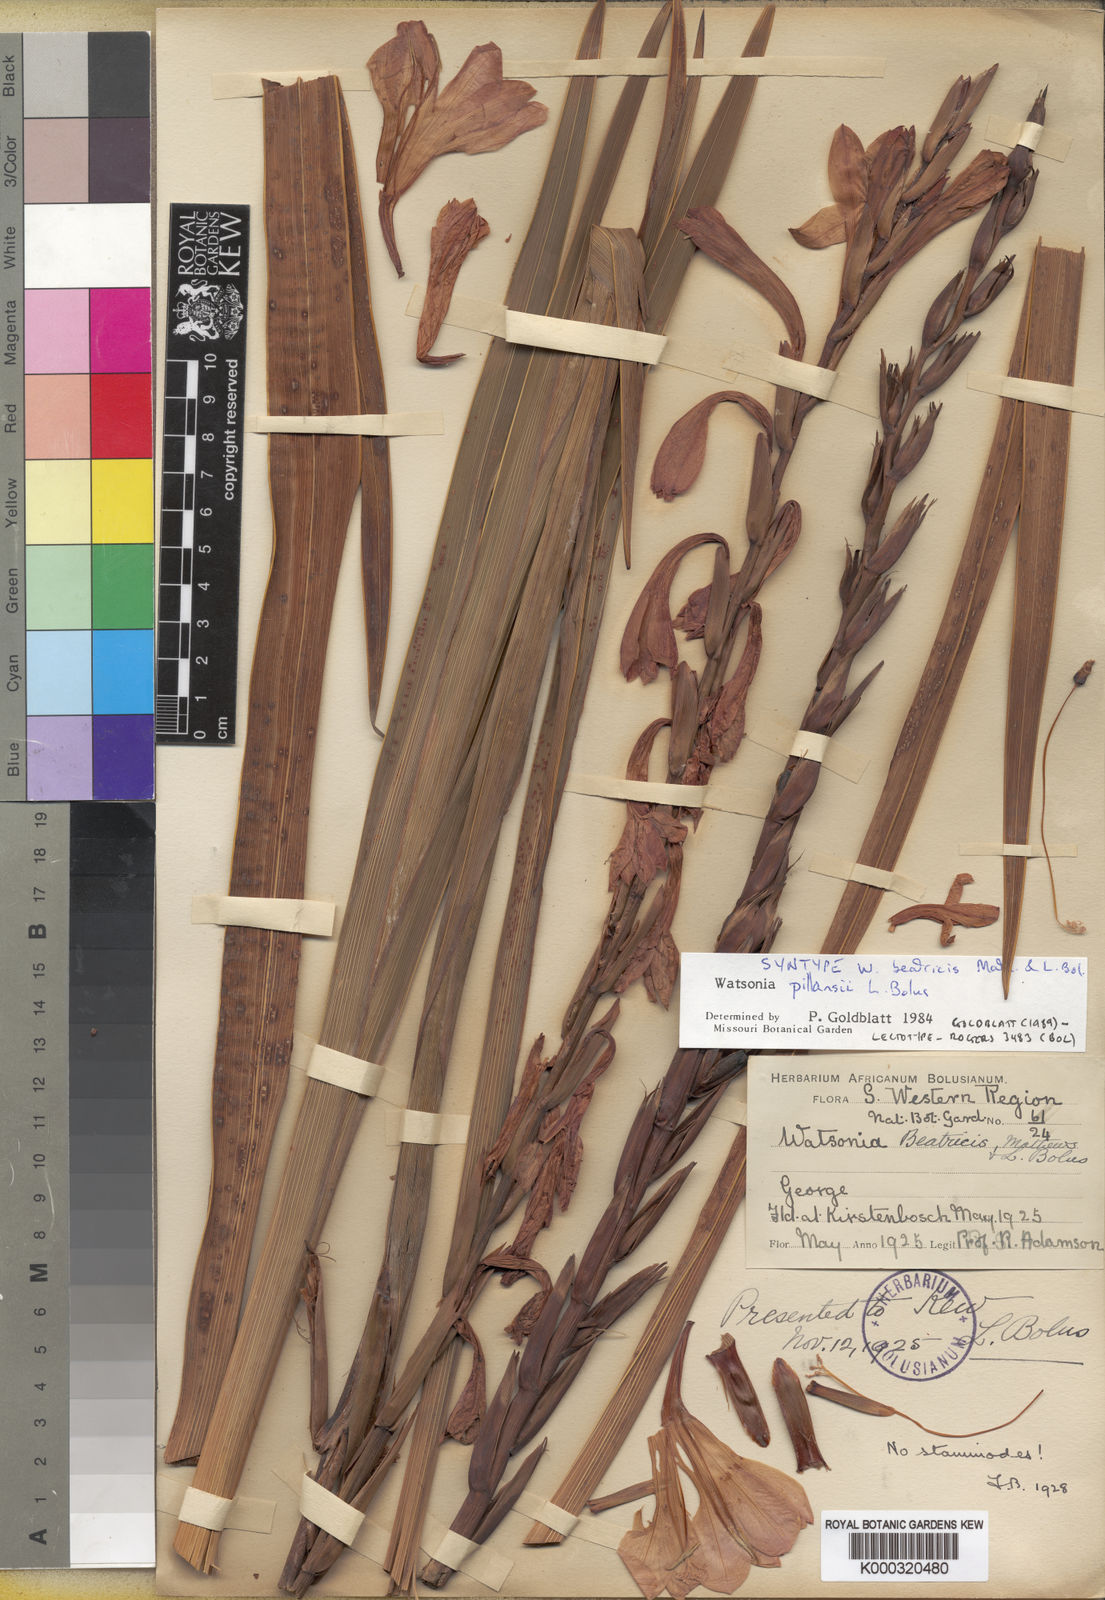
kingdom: Plantae
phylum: Tracheophyta
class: Liliopsida
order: Asparagales
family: Iridaceae
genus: Watsonia
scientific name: Watsonia pillansii
